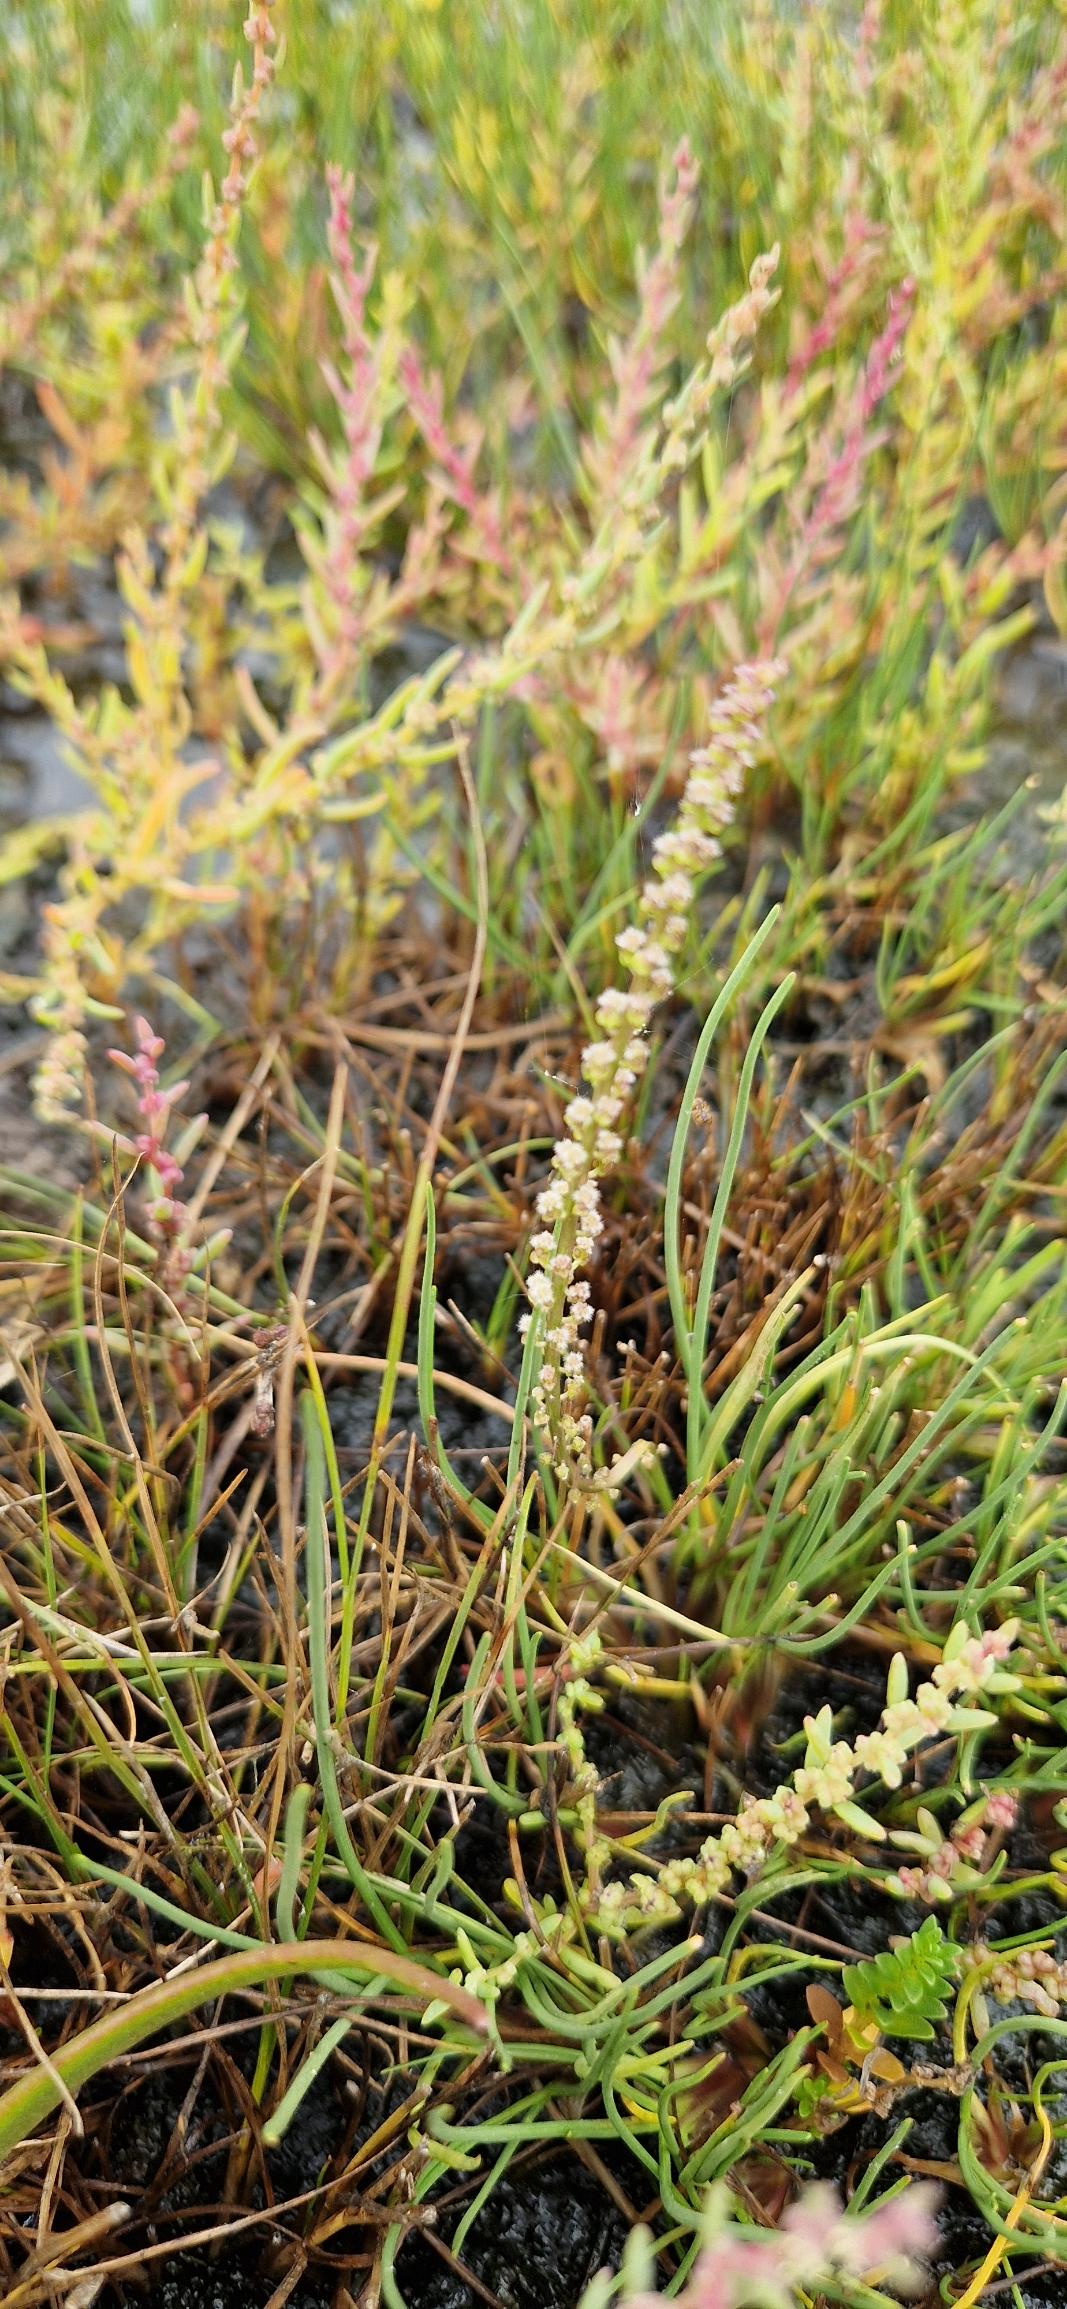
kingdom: Plantae
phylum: Tracheophyta
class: Liliopsida
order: Alismatales
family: Juncaginaceae
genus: Triglochin
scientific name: Triglochin maritima
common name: Strand-trehage
